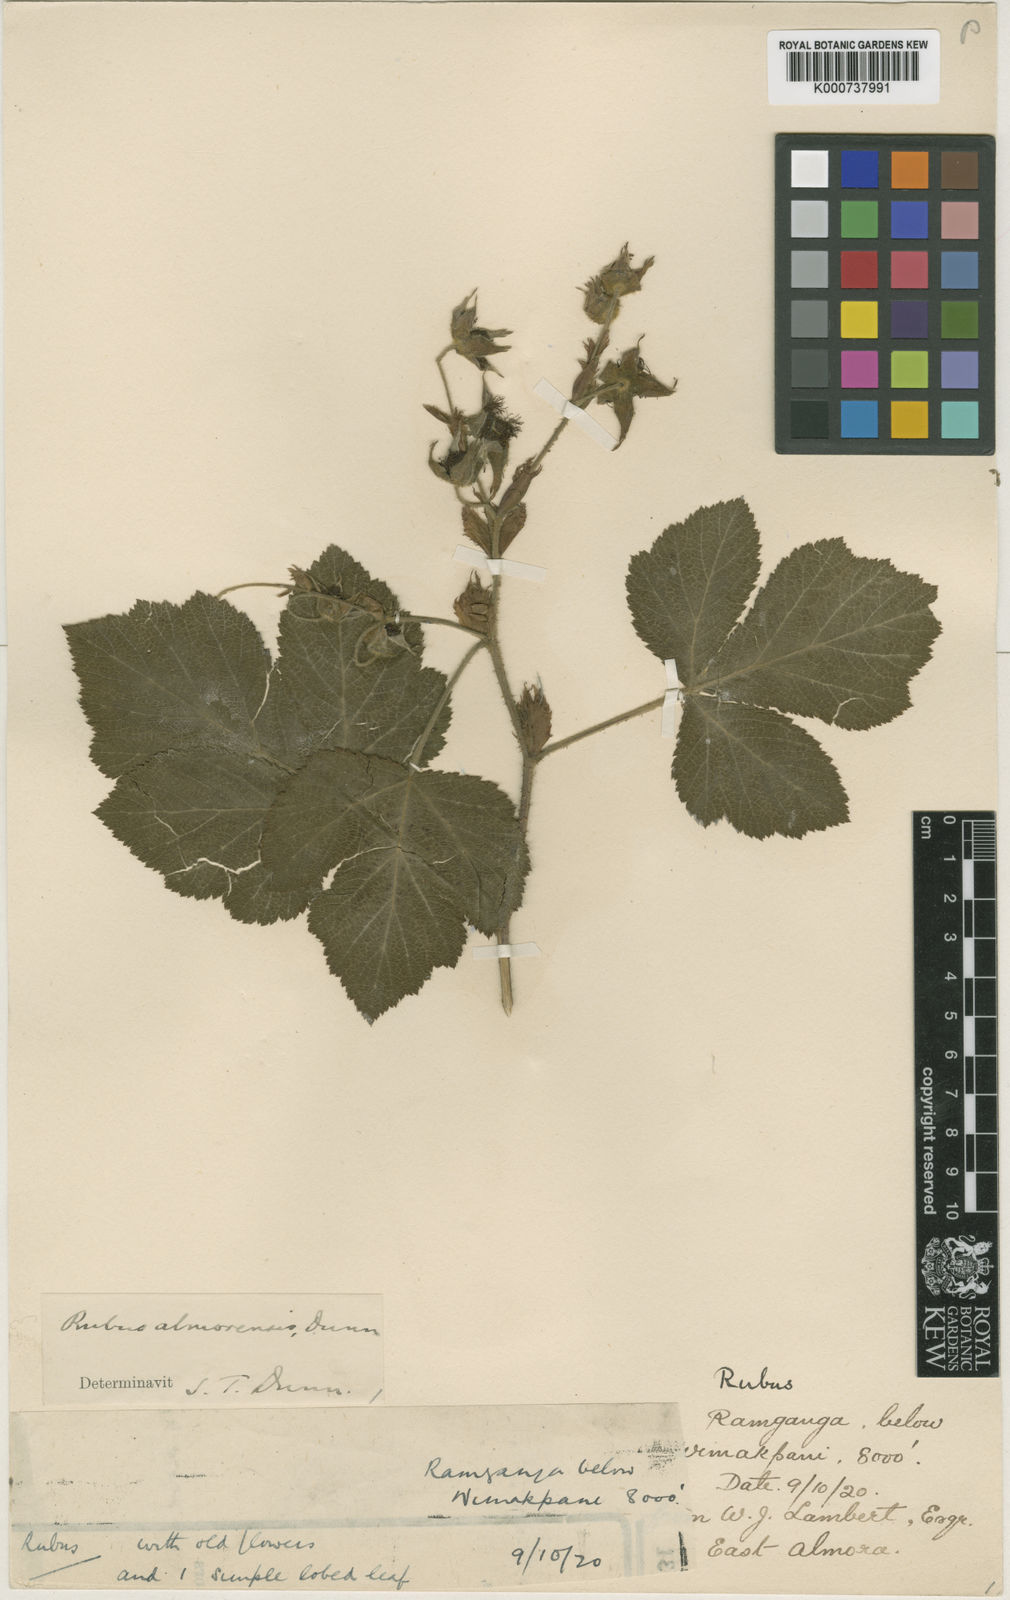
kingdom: Plantae
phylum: Tracheophyta
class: Magnoliopsida
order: Rosales
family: Rosaceae
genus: Rubus
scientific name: Rubus almorensis
